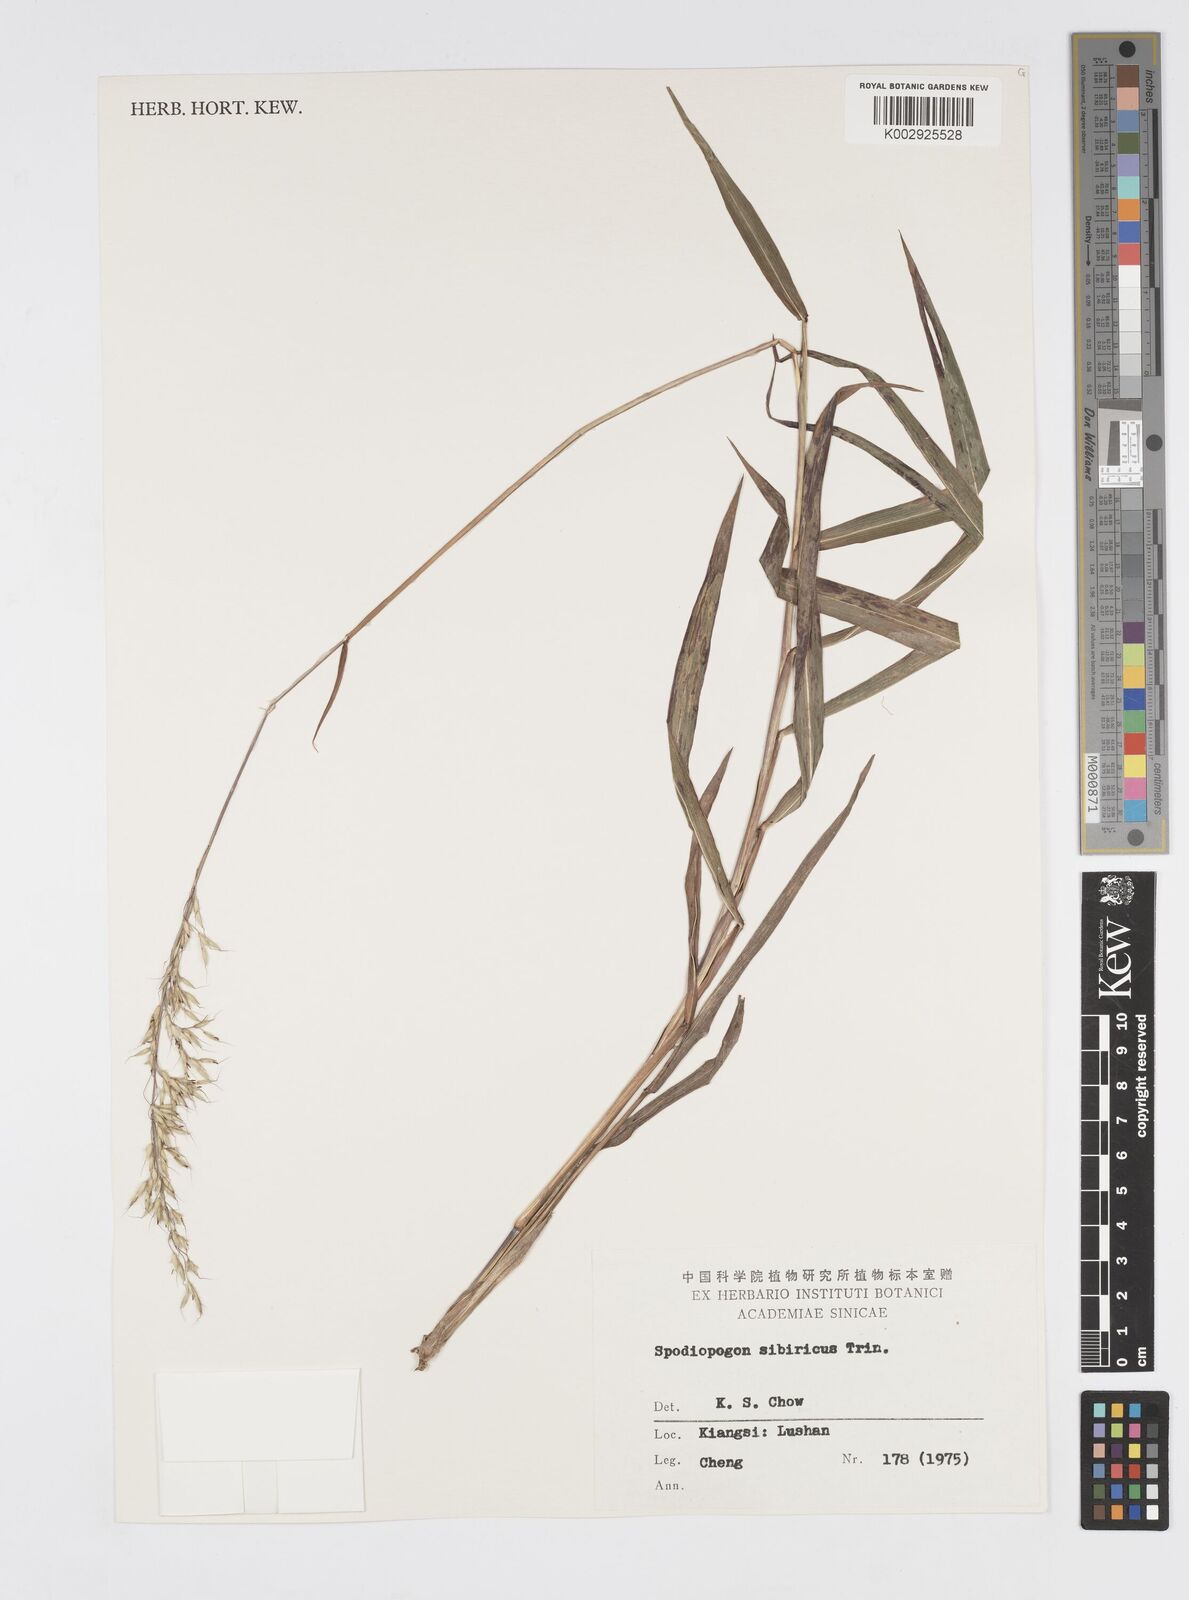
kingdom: Plantae
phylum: Tracheophyta
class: Liliopsida
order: Poales
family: Poaceae
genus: Spodiopogon
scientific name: Spodiopogon sibiricus
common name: Siberian graybeard
